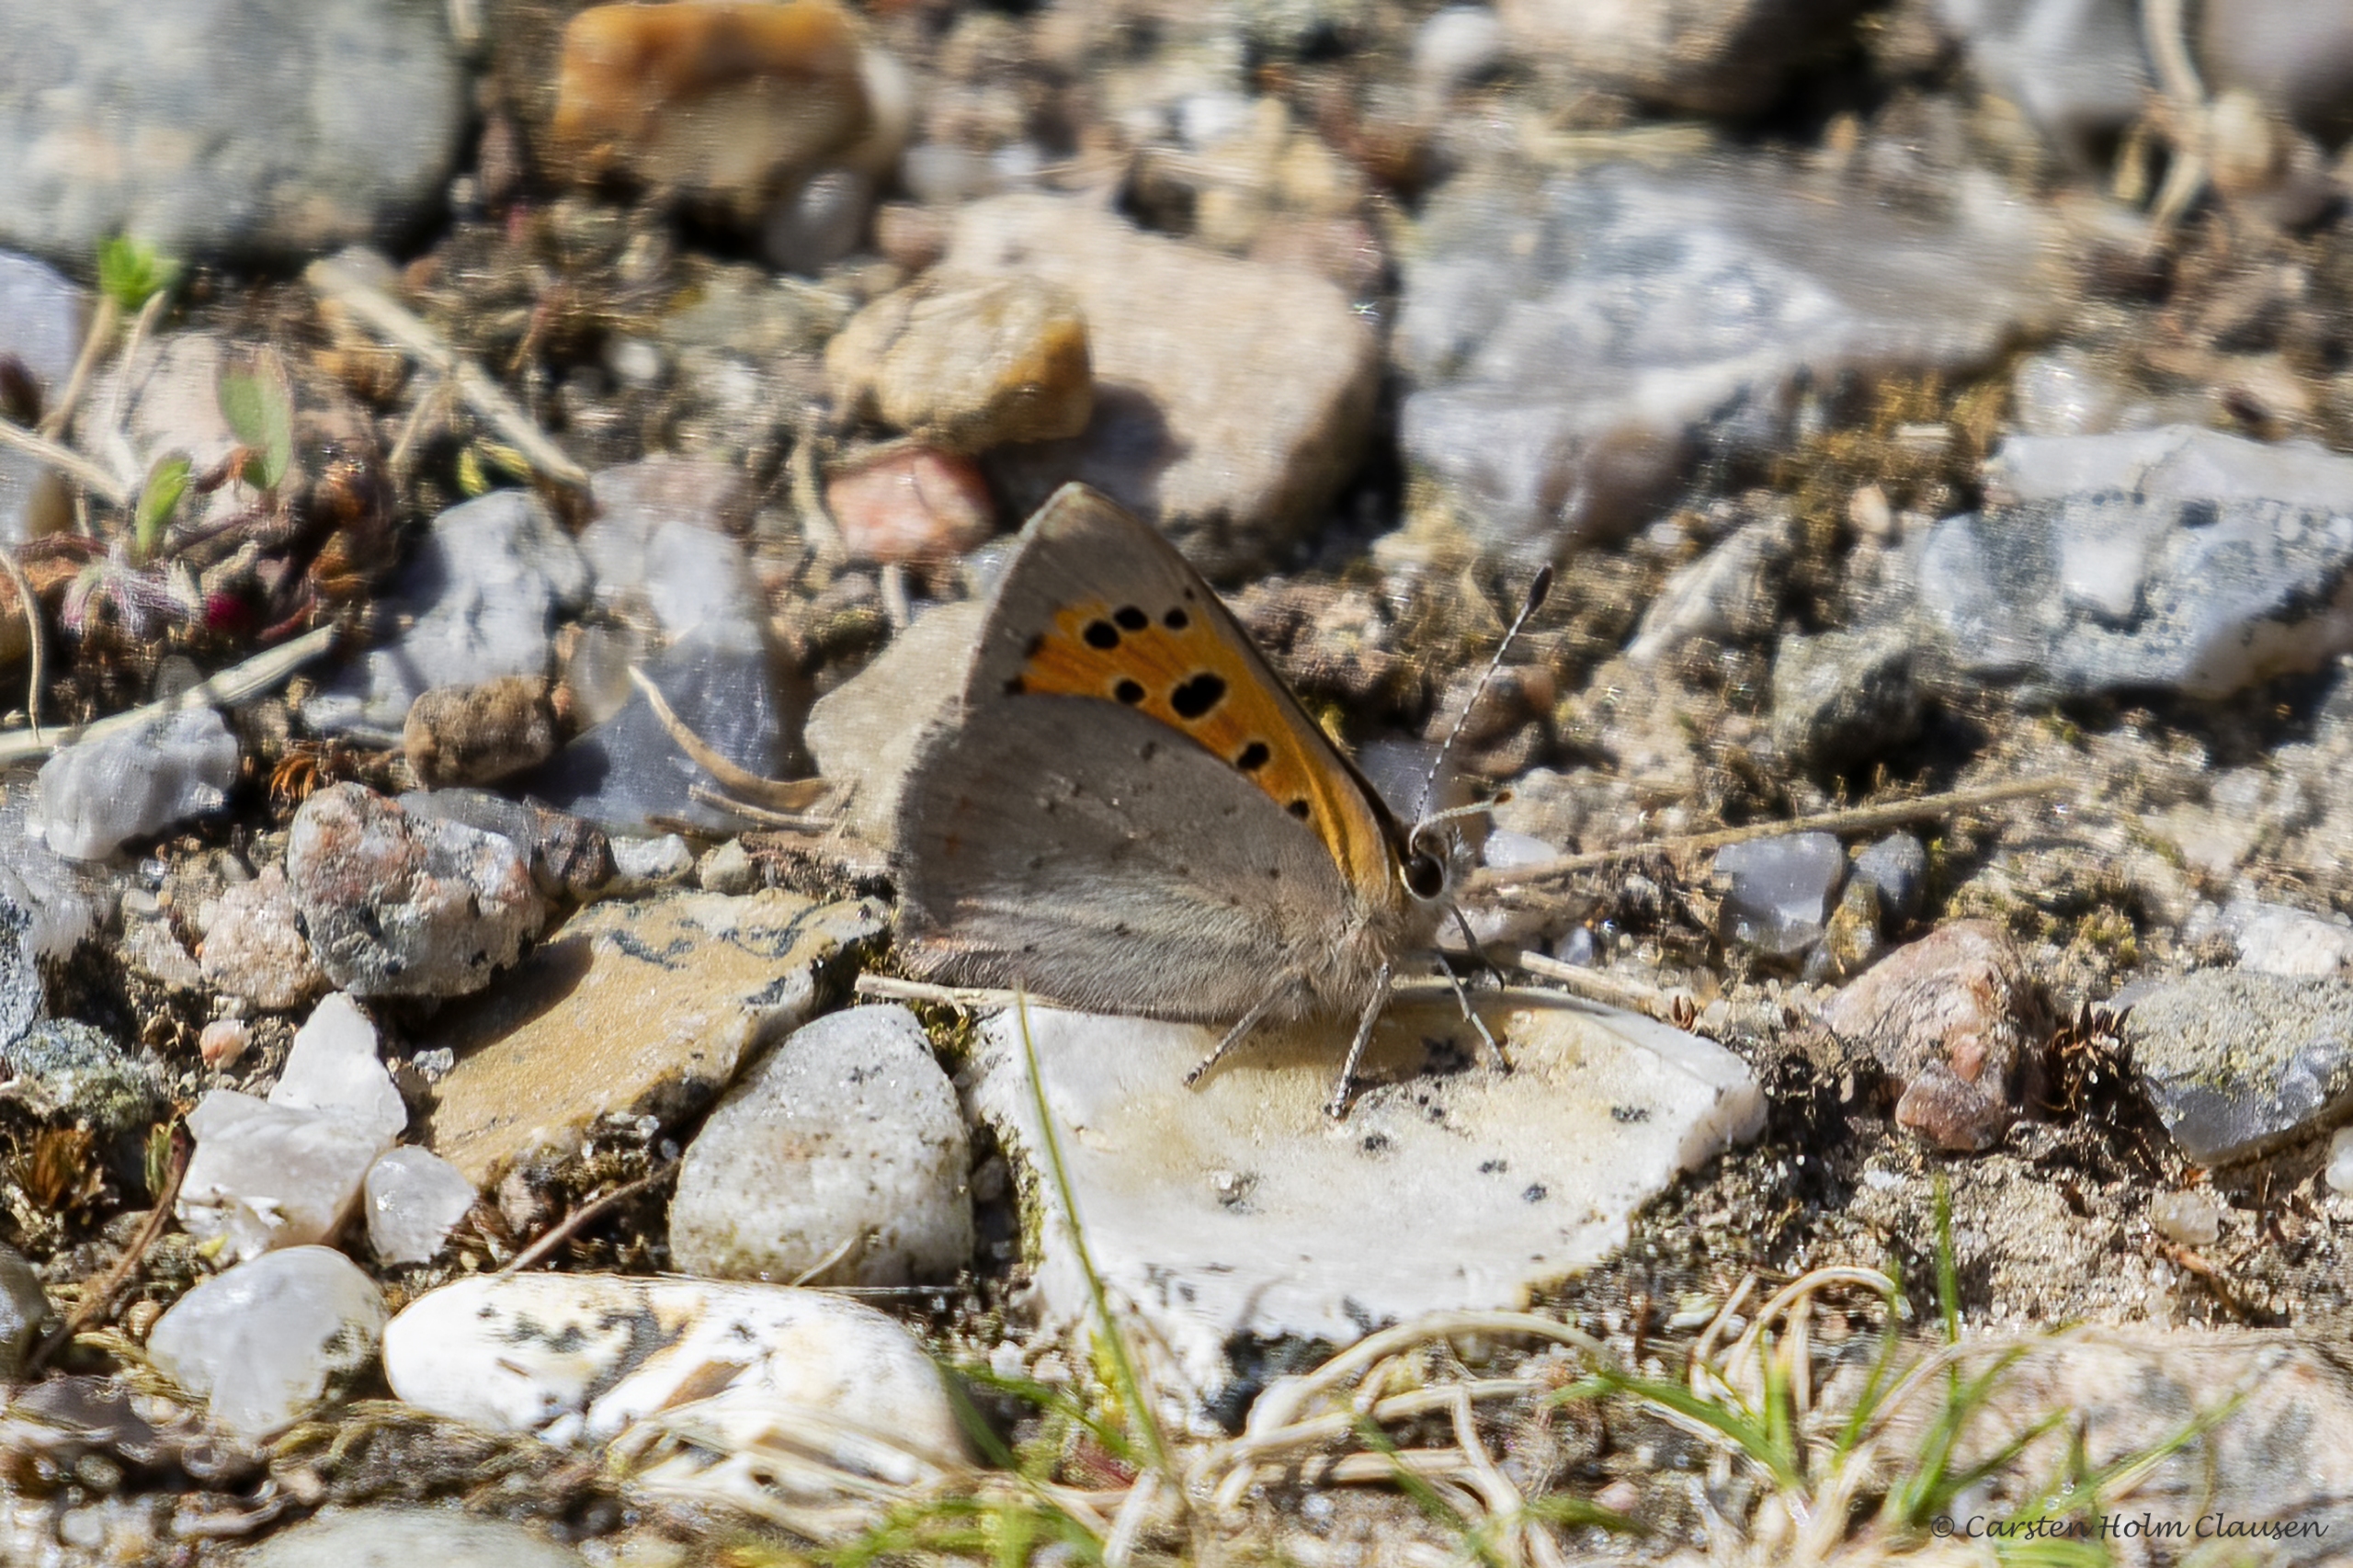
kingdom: Animalia
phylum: Arthropoda
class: Insecta
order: Lepidoptera
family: Lycaenidae
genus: Lycaena
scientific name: Lycaena phlaeas
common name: Lille ildfugl
